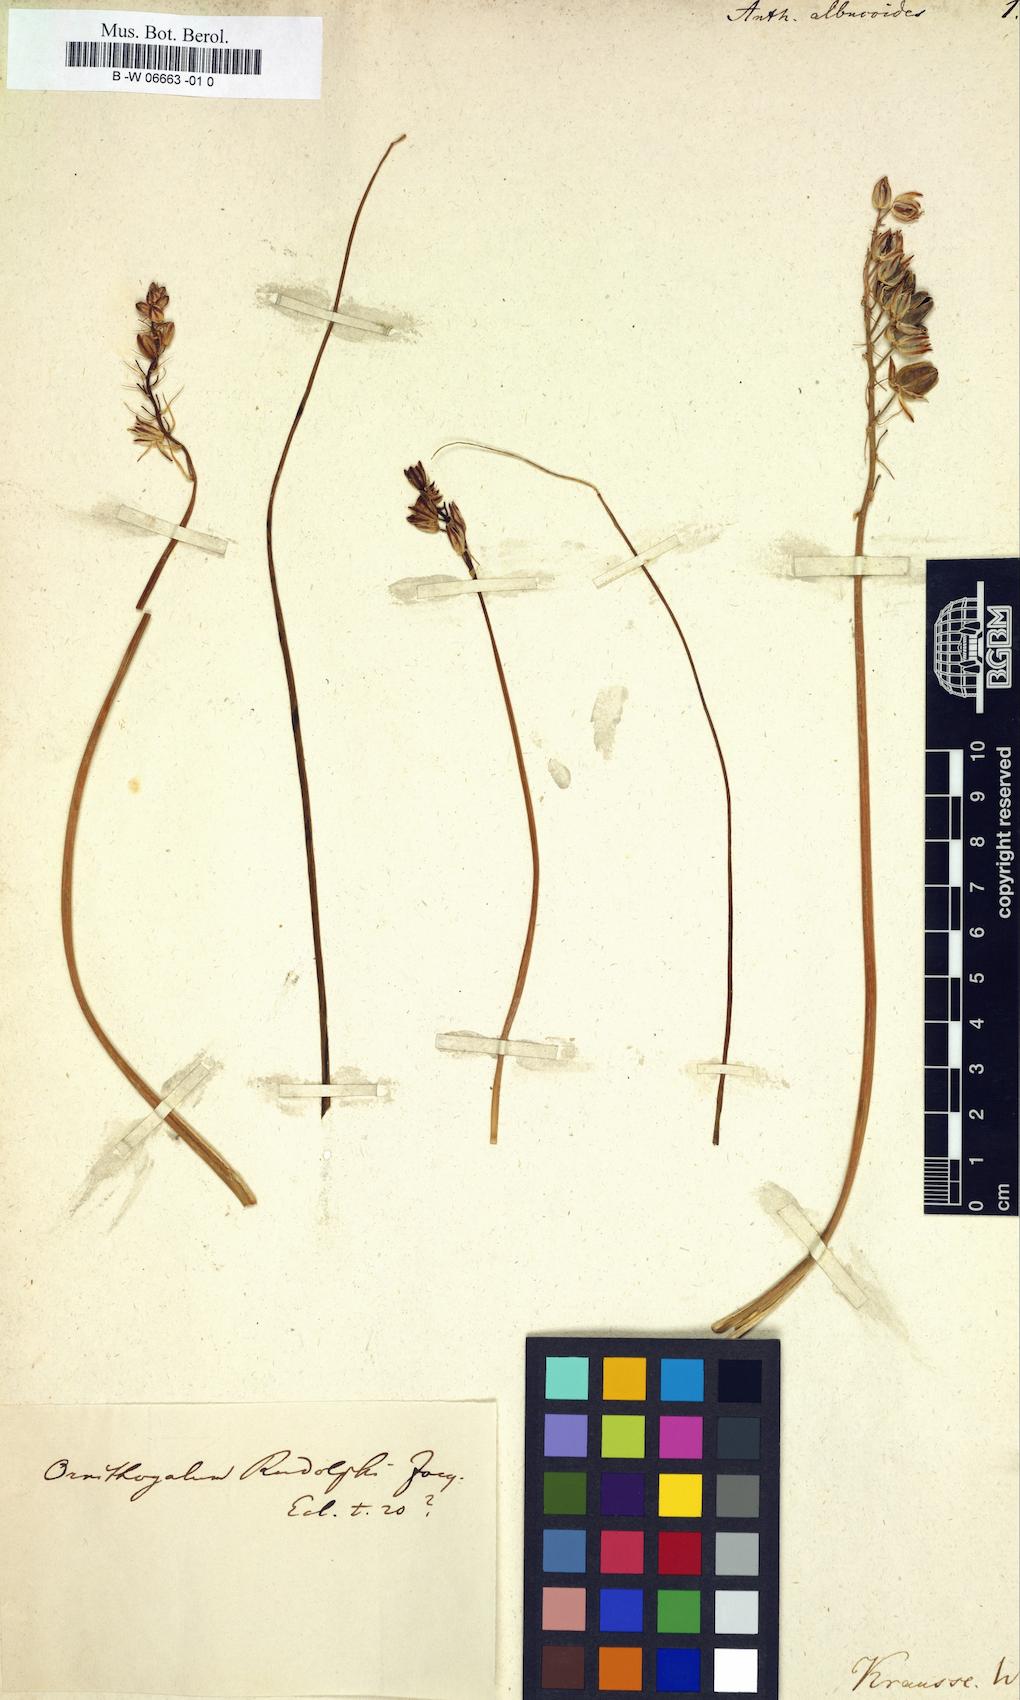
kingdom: Plantae
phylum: Tracheophyta
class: Liliopsida
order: Asparagales
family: Asparagaceae
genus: Albuca
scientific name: Albuca albucoides
